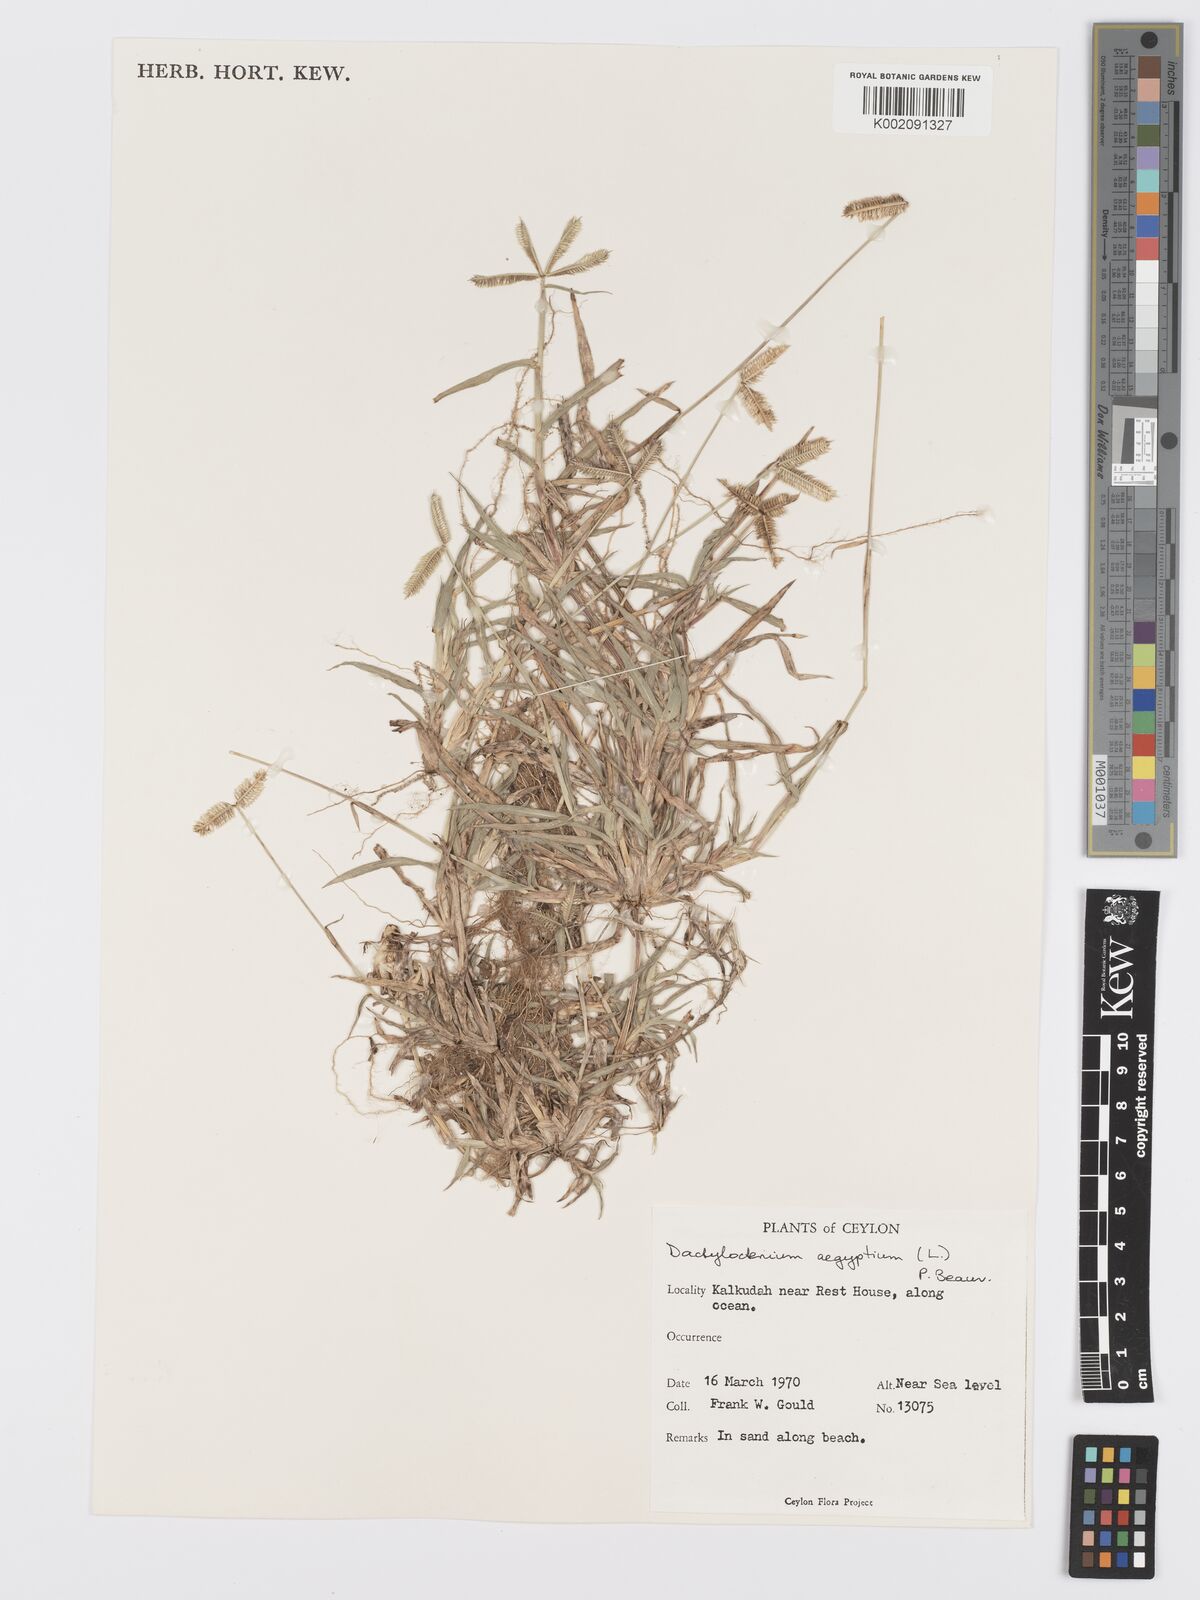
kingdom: Plantae
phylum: Tracheophyta
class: Liliopsida
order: Poales
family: Poaceae
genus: Dactyloctenium
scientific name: Dactyloctenium aegyptium
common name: Egyptian grass
